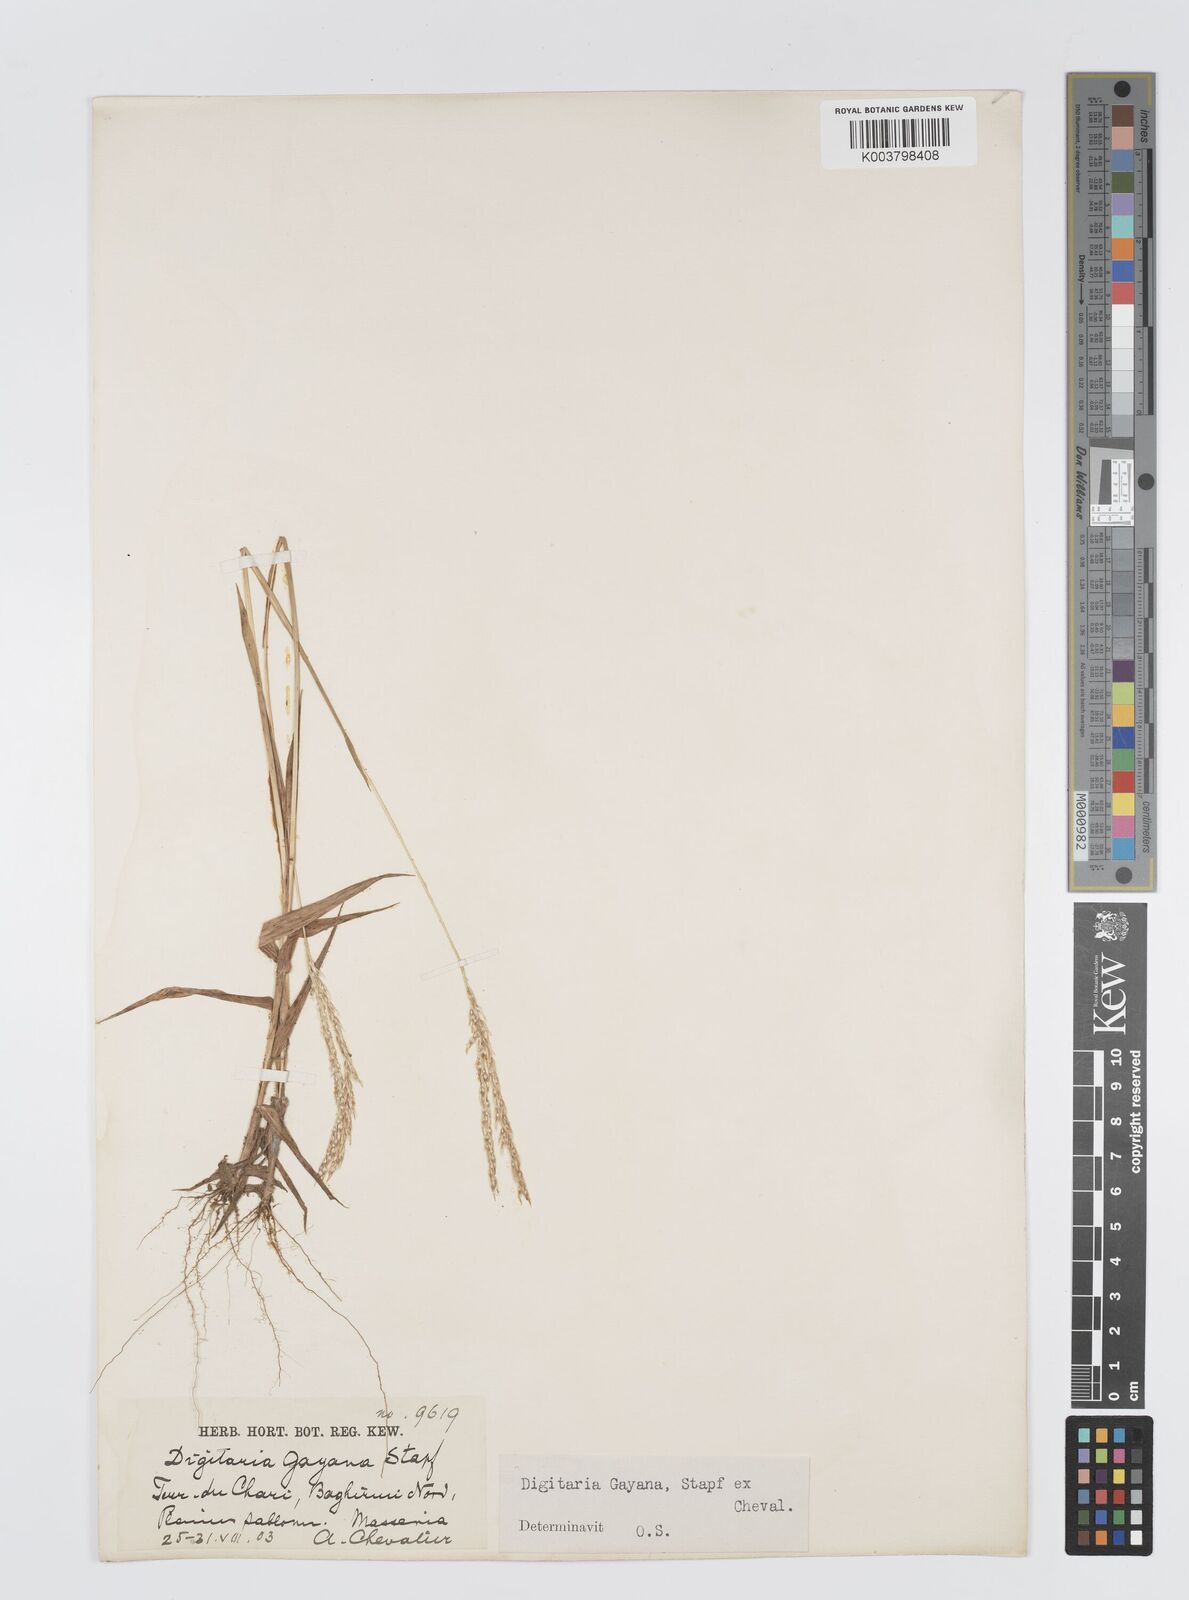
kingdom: Plantae
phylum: Tracheophyta
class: Liliopsida
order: Poales
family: Poaceae
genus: Digitaria
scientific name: Digitaria gayana
